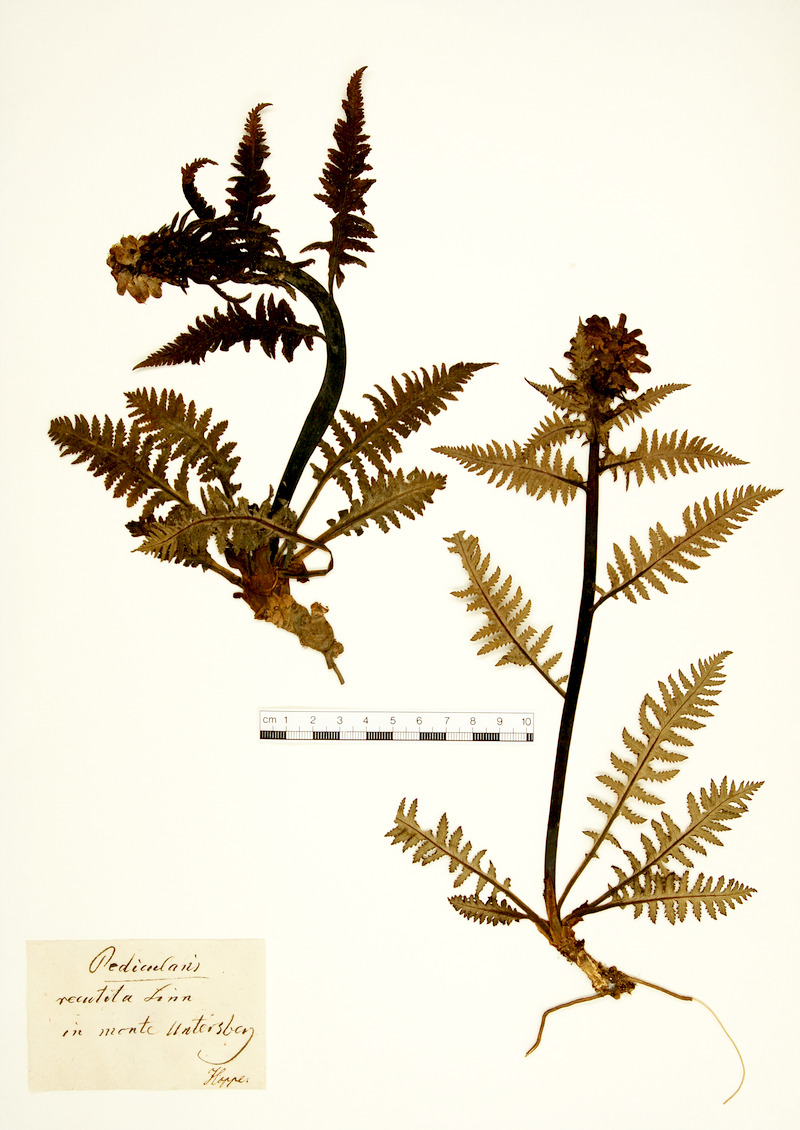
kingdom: Plantae
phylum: Tracheophyta
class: Magnoliopsida
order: Lamiales
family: Orobanchaceae
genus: Pedicularis
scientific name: Pedicularis recutita
